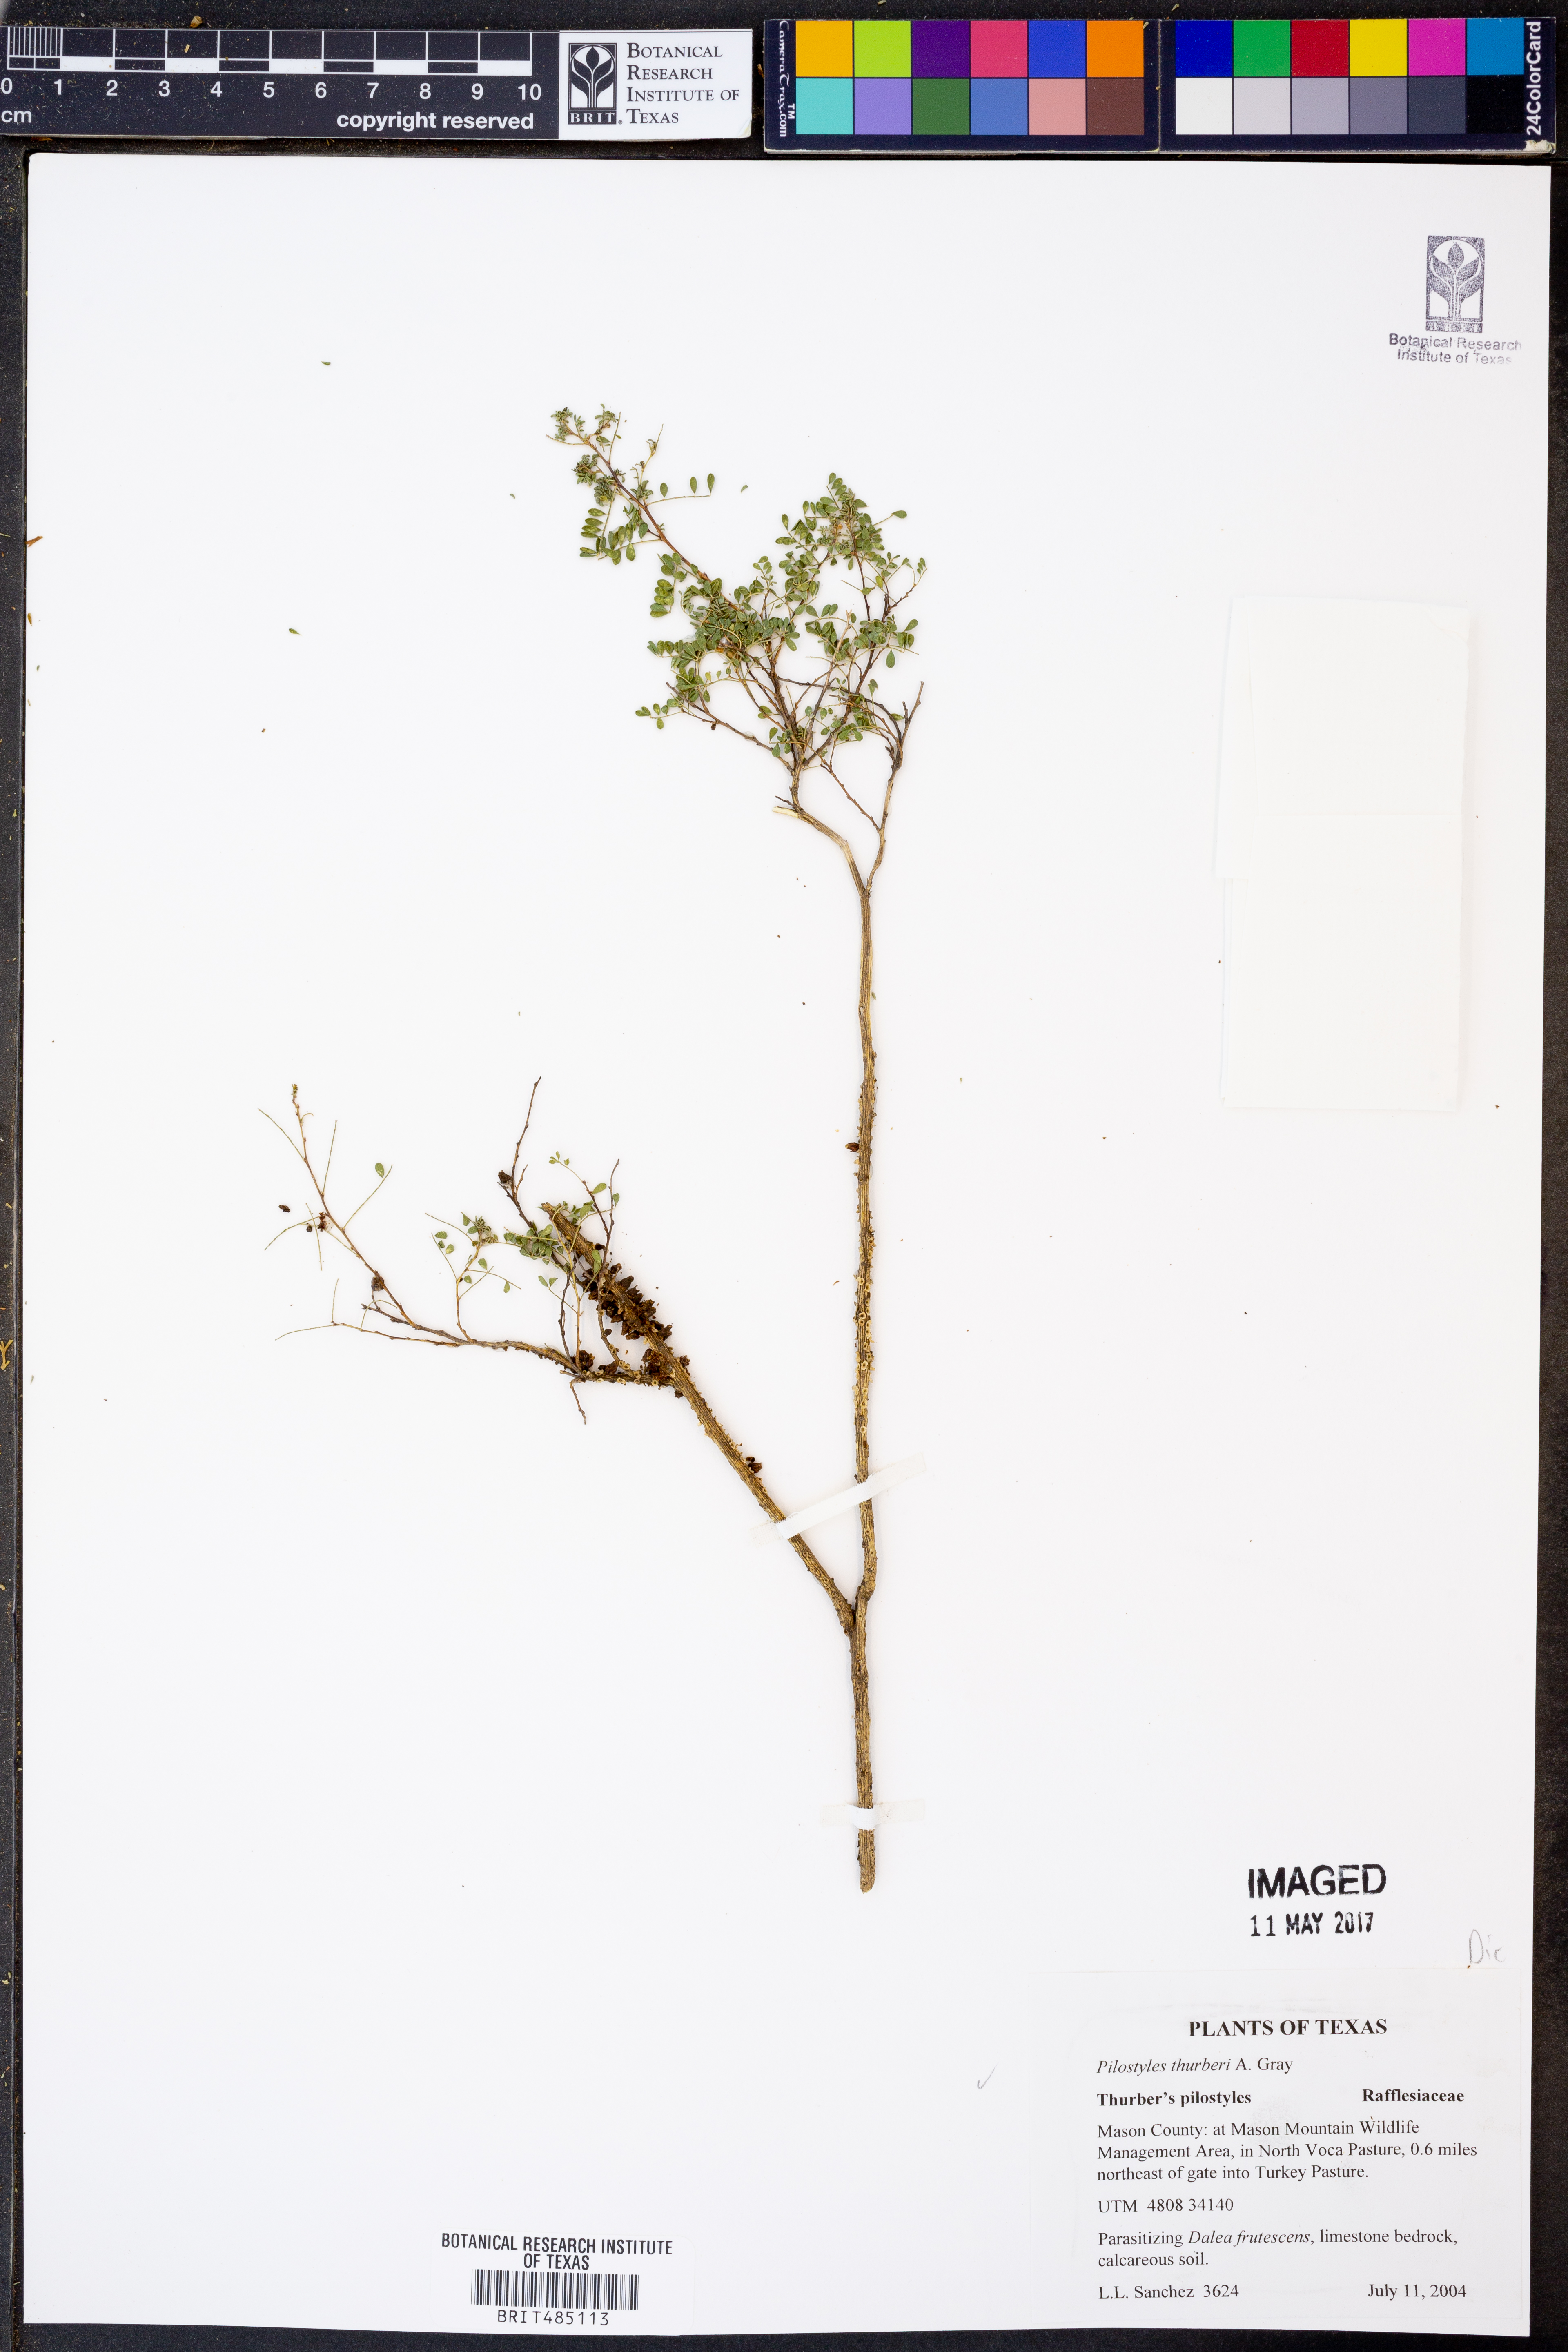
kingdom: Plantae
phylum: Tracheophyta
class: Magnoliopsida
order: Cucurbitales
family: Apodanthaceae
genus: Pilostyles
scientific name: Pilostyles thurberi
